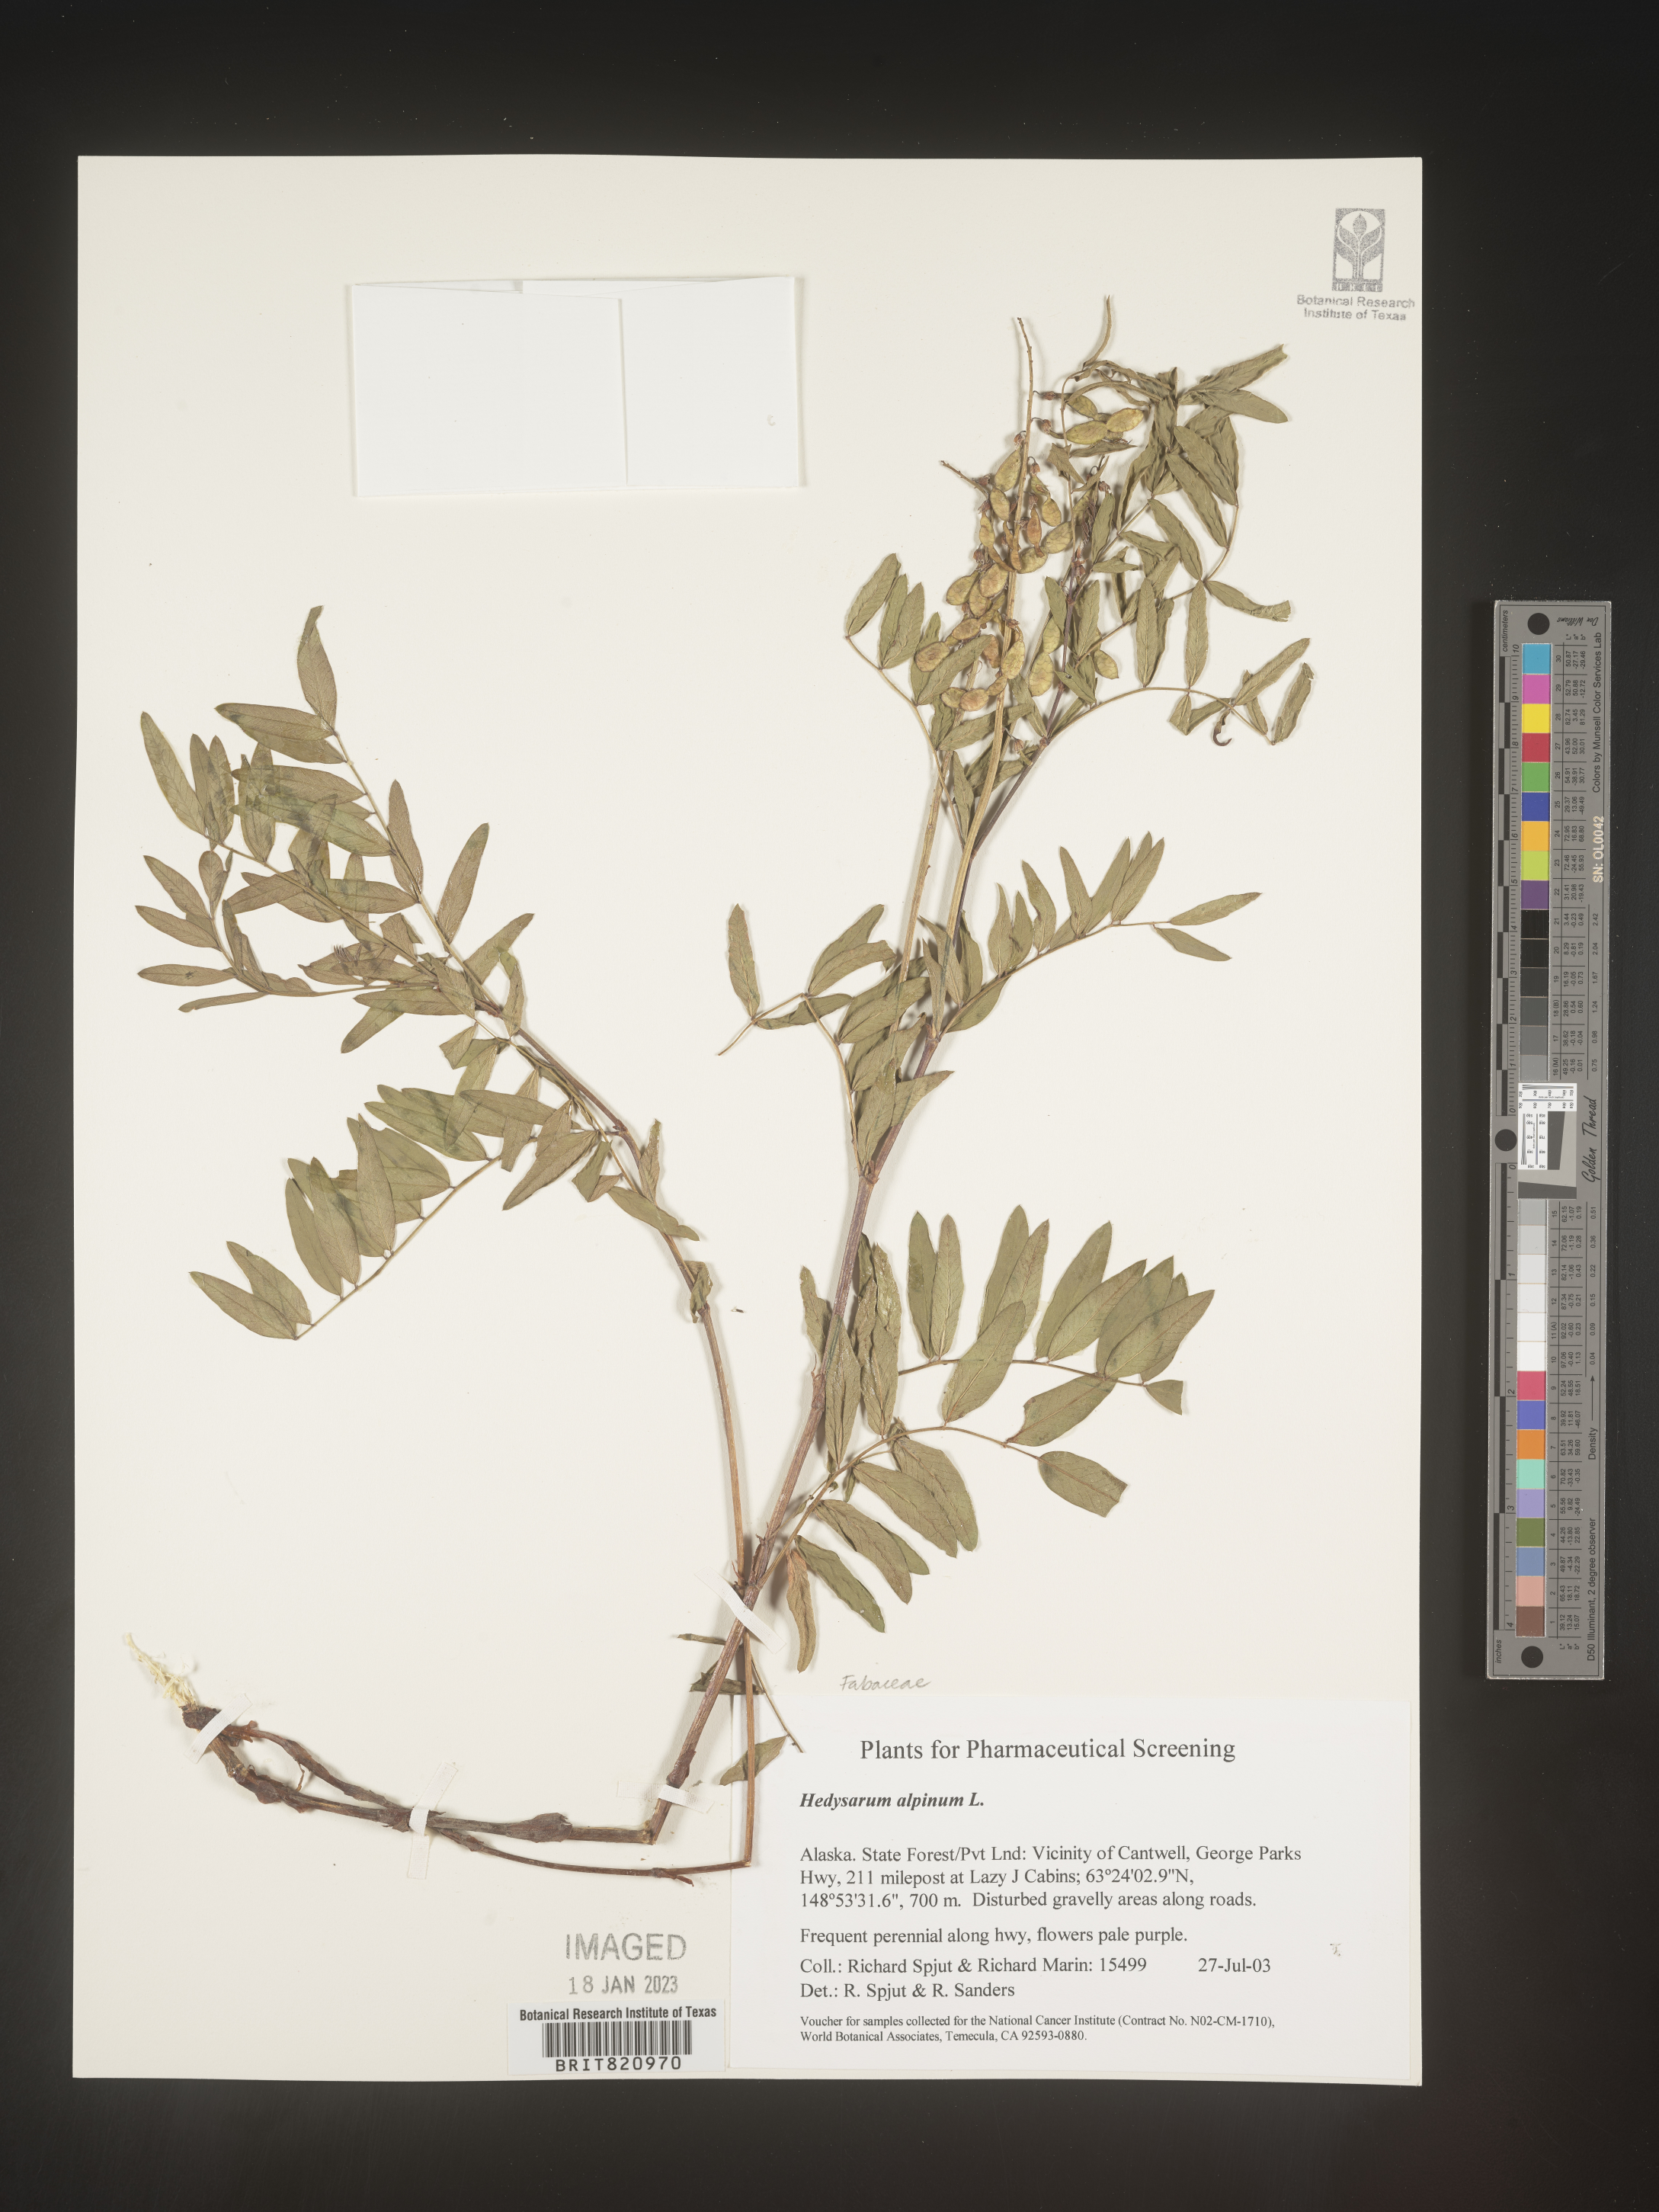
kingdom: Plantae
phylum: Tracheophyta
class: Magnoliopsida
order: Fabales
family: Fabaceae
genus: Hedysarum
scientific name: Hedysarum alpinum
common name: Alpine sweet-vetch
